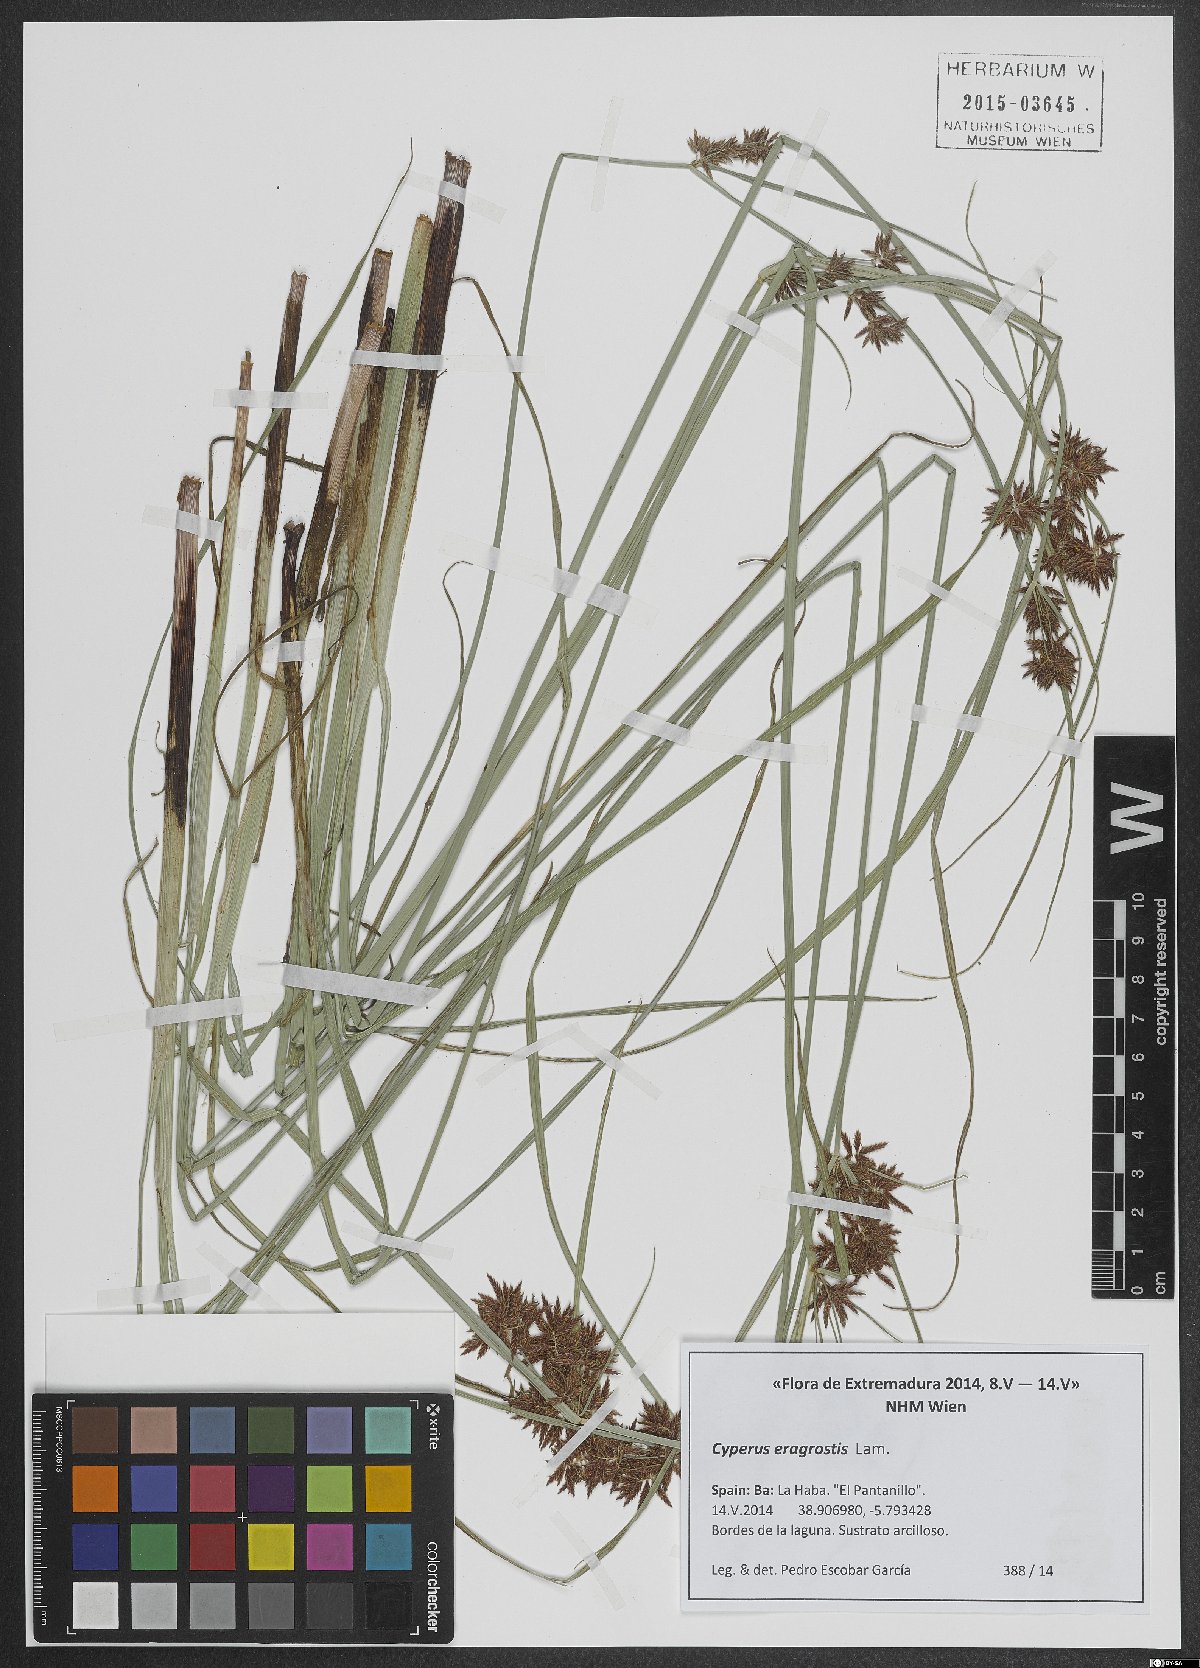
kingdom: Plantae
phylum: Tracheophyta
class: Liliopsida
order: Poales
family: Cyperaceae
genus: Cyperus
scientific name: Cyperus eragrostis
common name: Tall flatsedge
